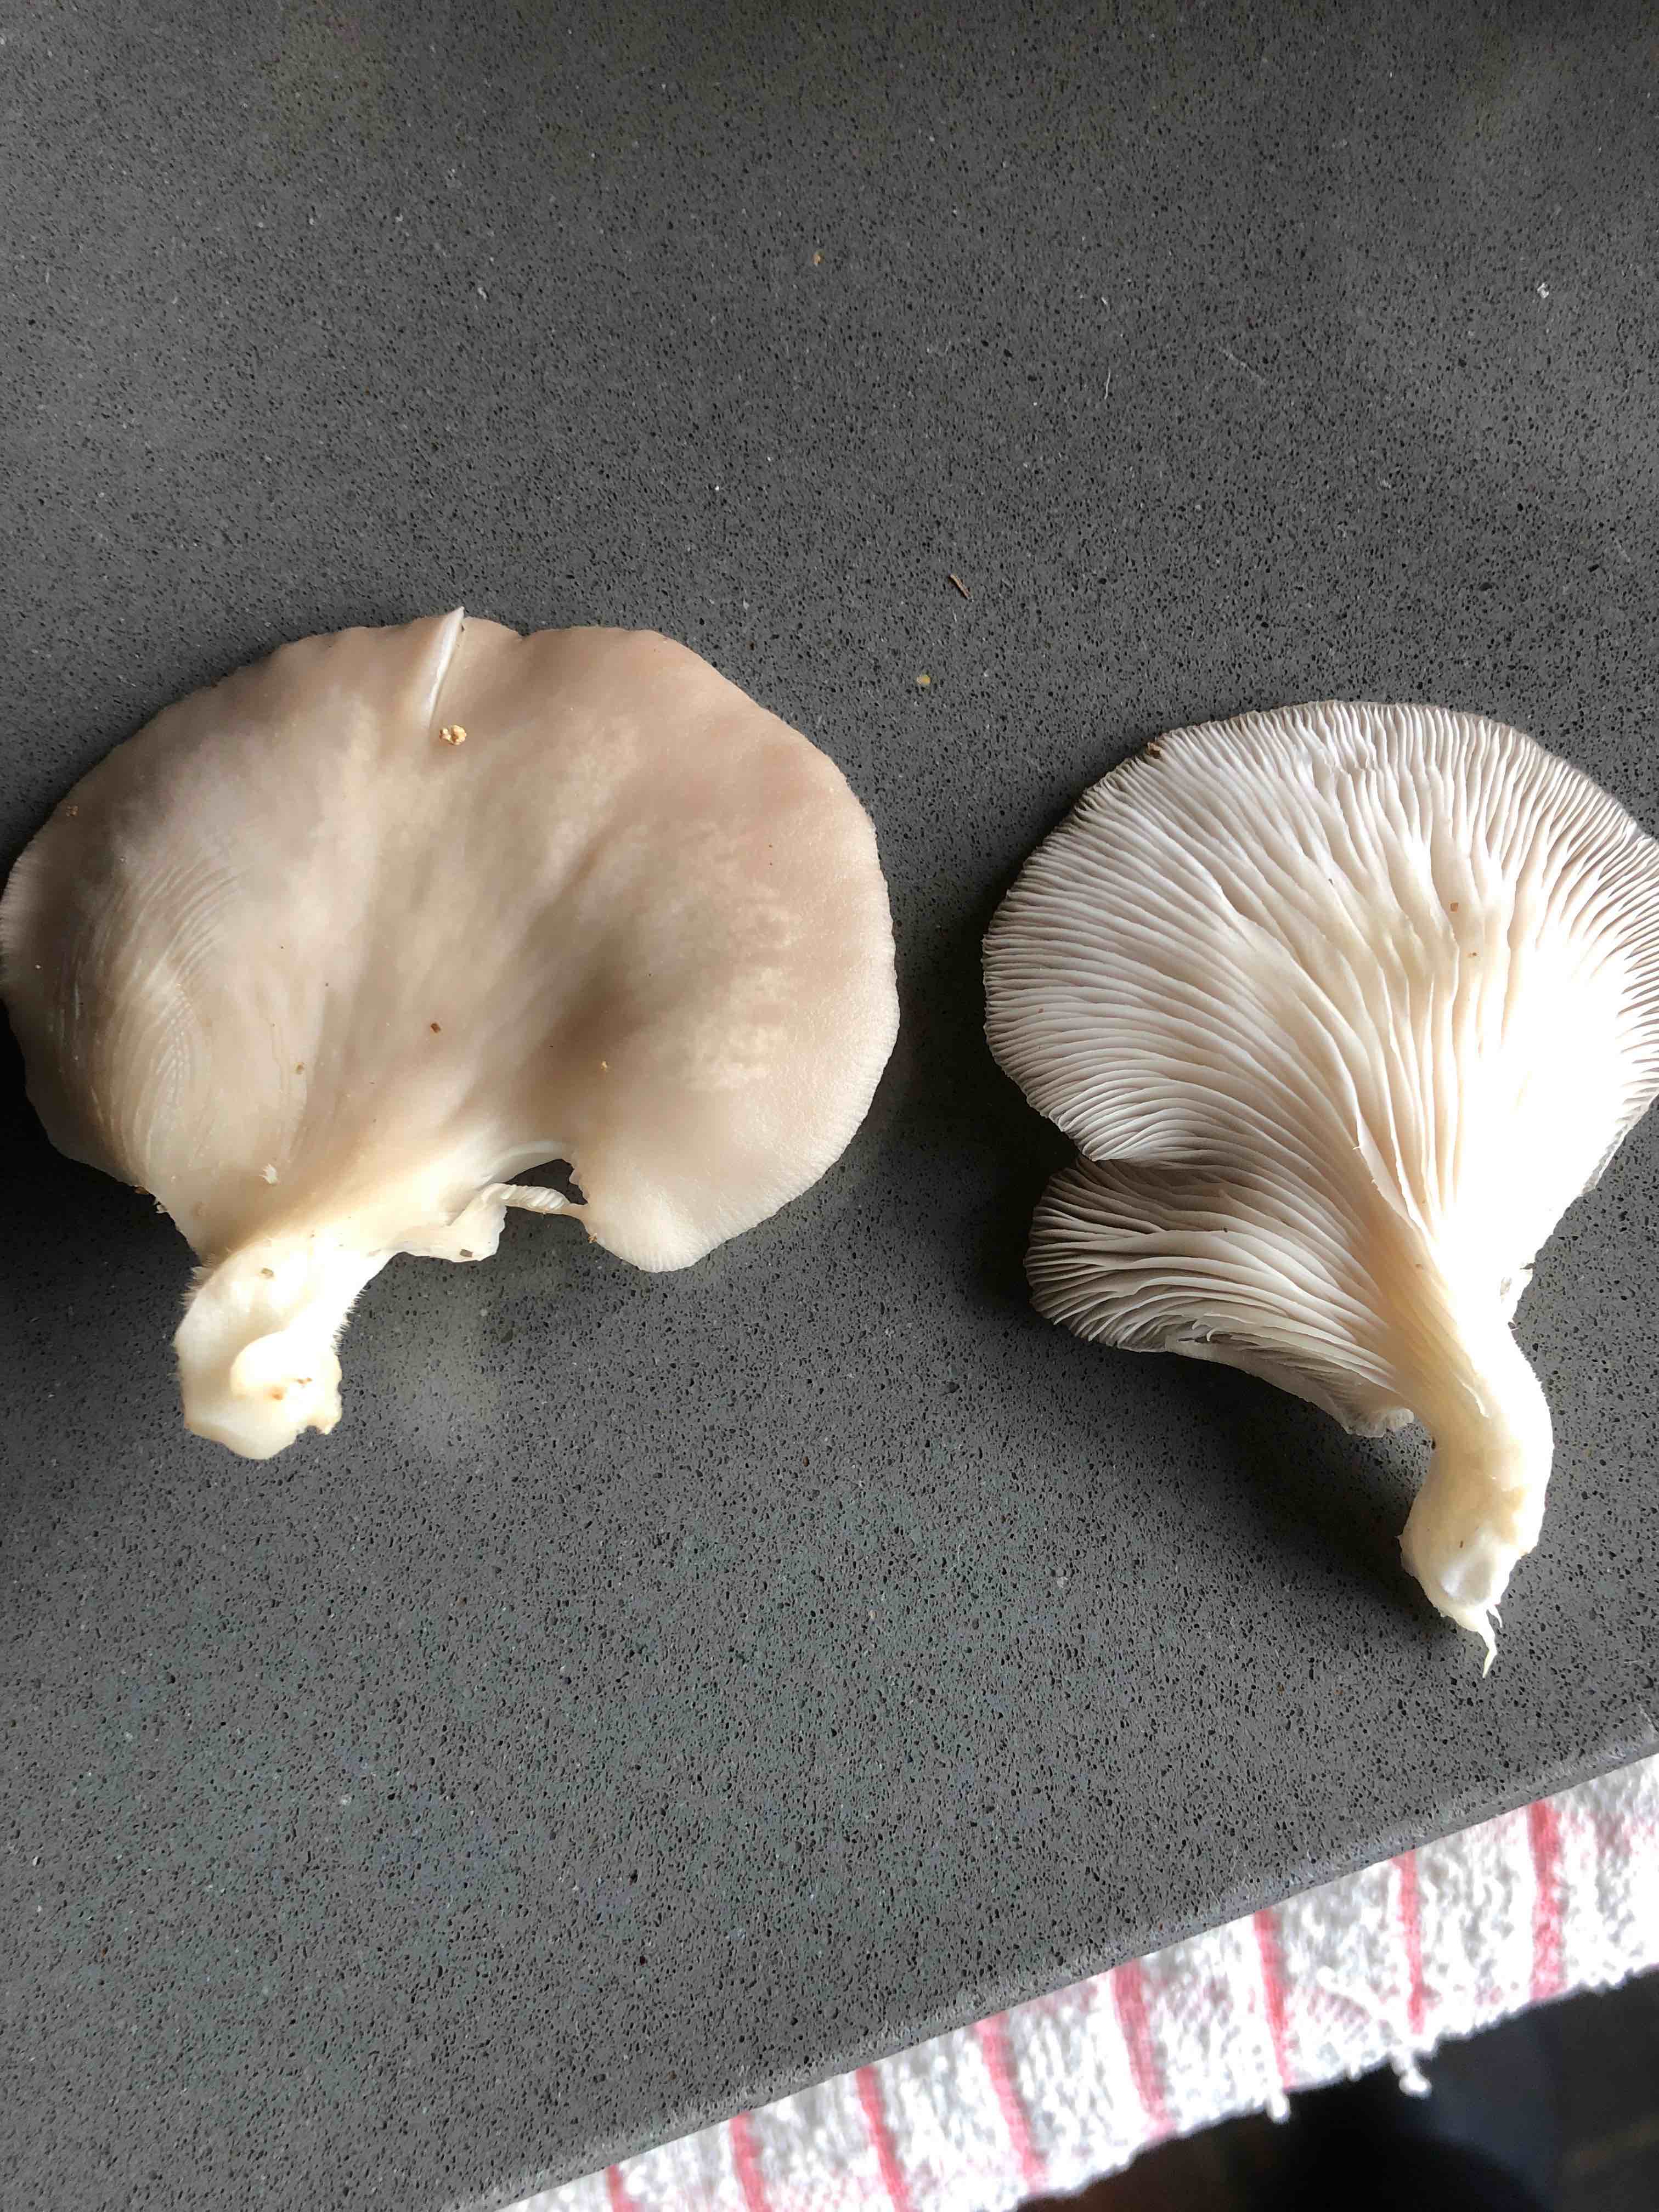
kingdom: Fungi
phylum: Basidiomycota
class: Agaricomycetes
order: Agaricales
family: Pleurotaceae
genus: Pleurotus
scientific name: Pleurotus pulmonarius
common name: sommer-østershat
